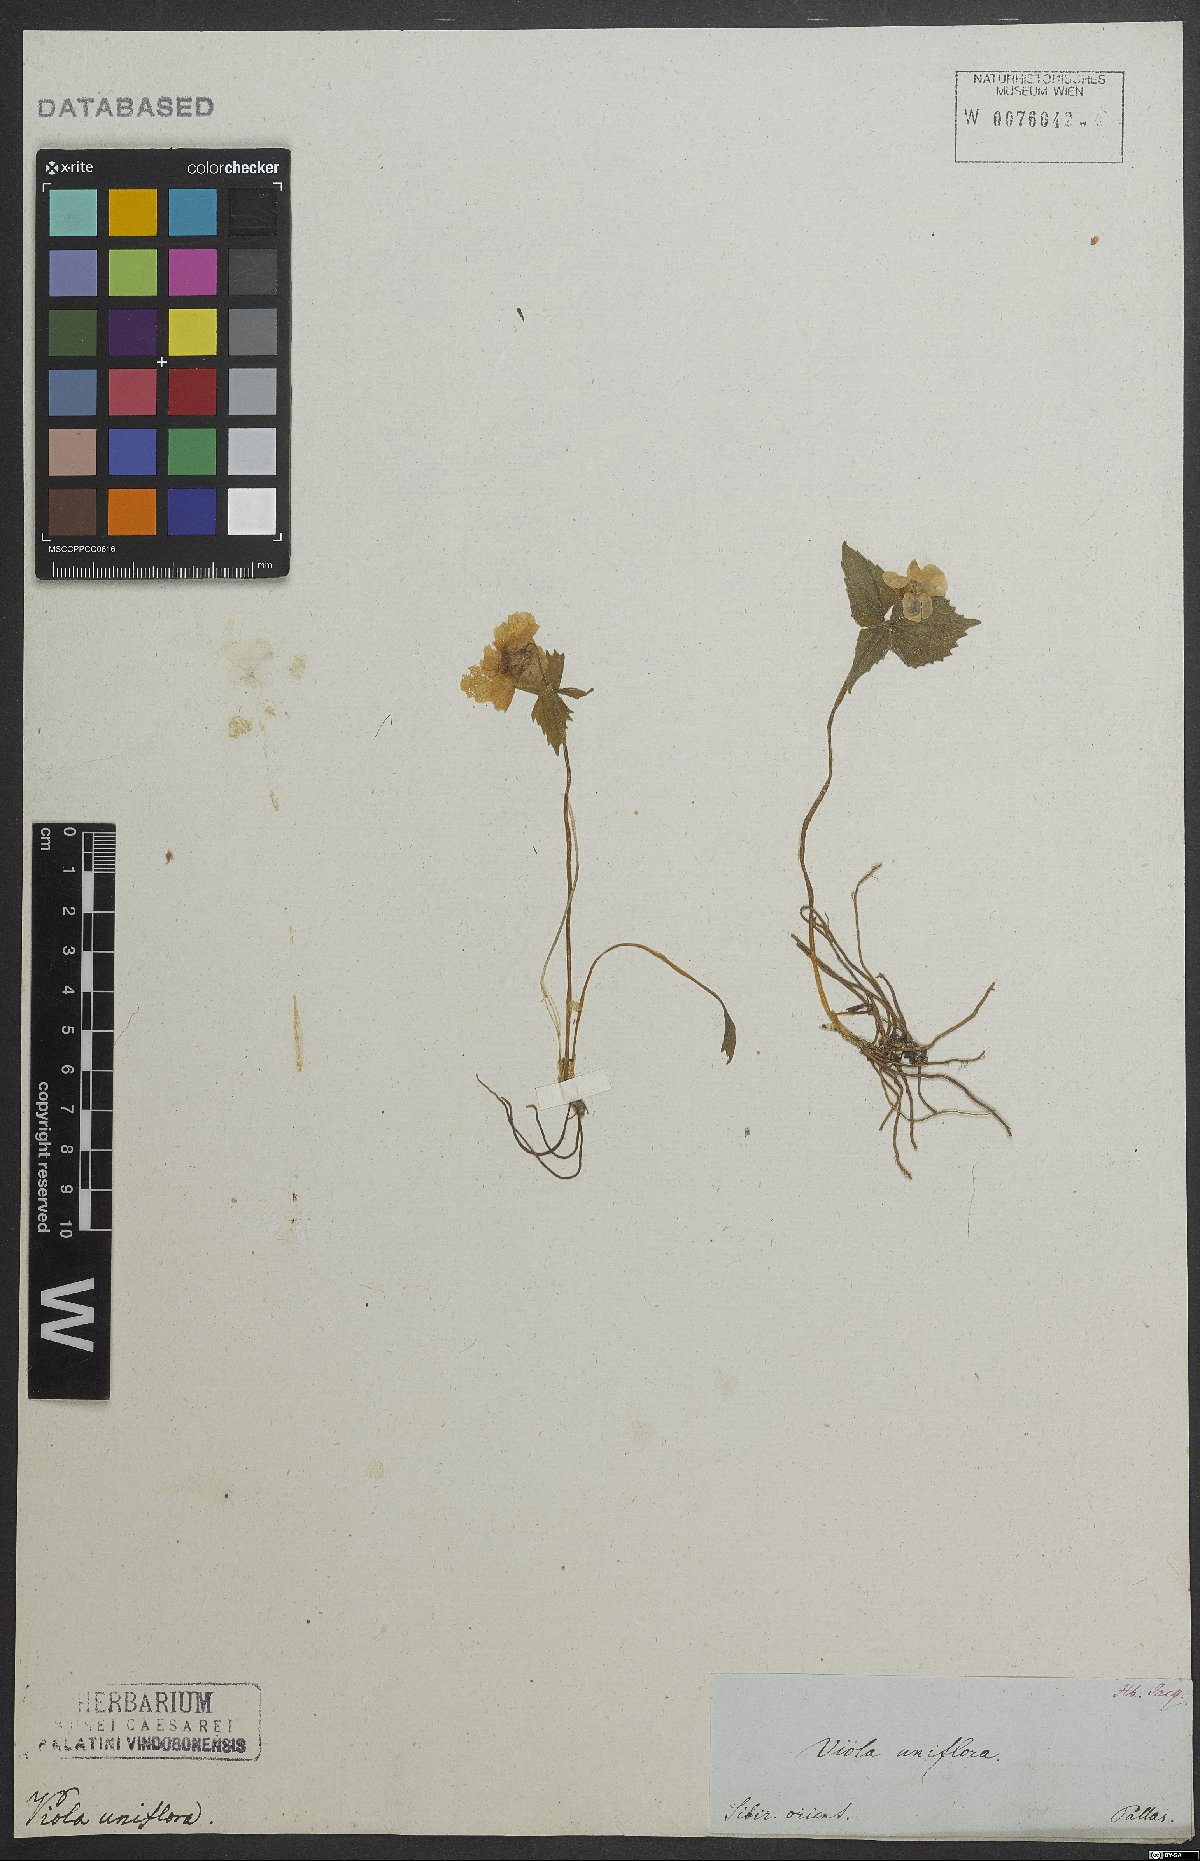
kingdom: Plantae
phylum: Tracheophyta
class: Magnoliopsida
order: Malpighiales
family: Violaceae
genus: Viola
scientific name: Viola uniflora
